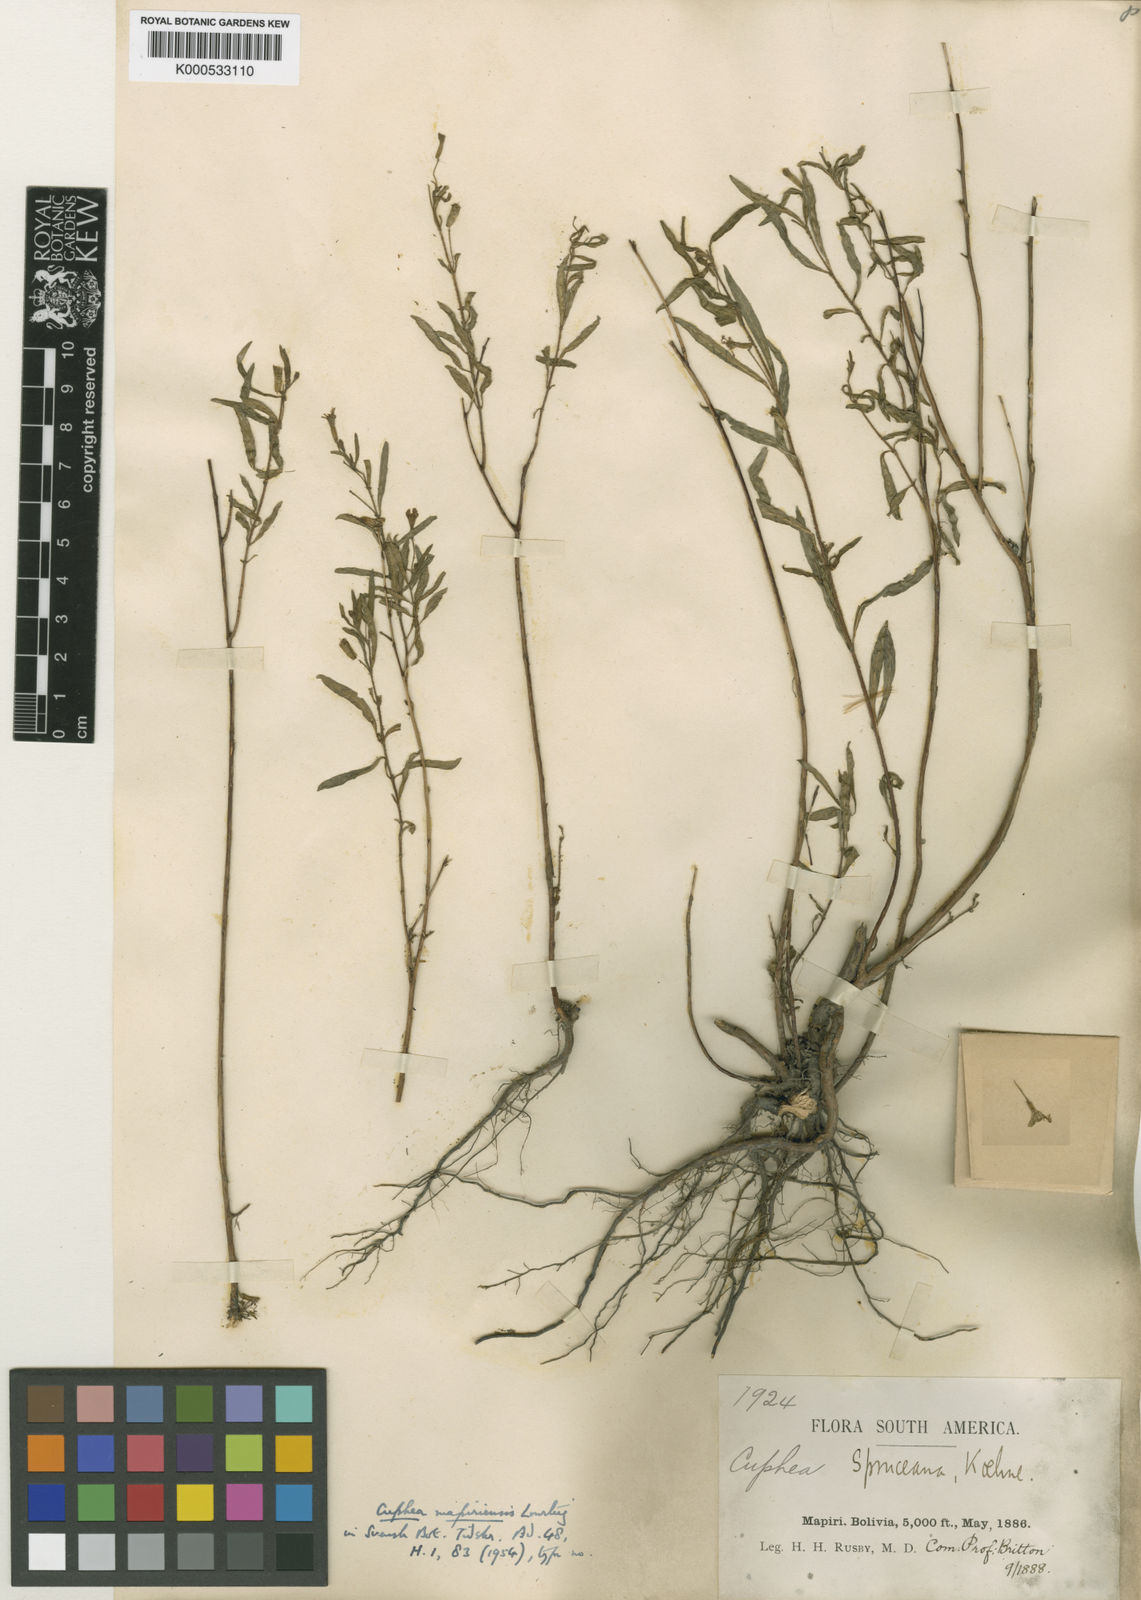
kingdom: Plantae
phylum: Tracheophyta
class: Magnoliopsida
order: Myrtales
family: Lythraceae
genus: Cuphea
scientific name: Cuphea spruceana
